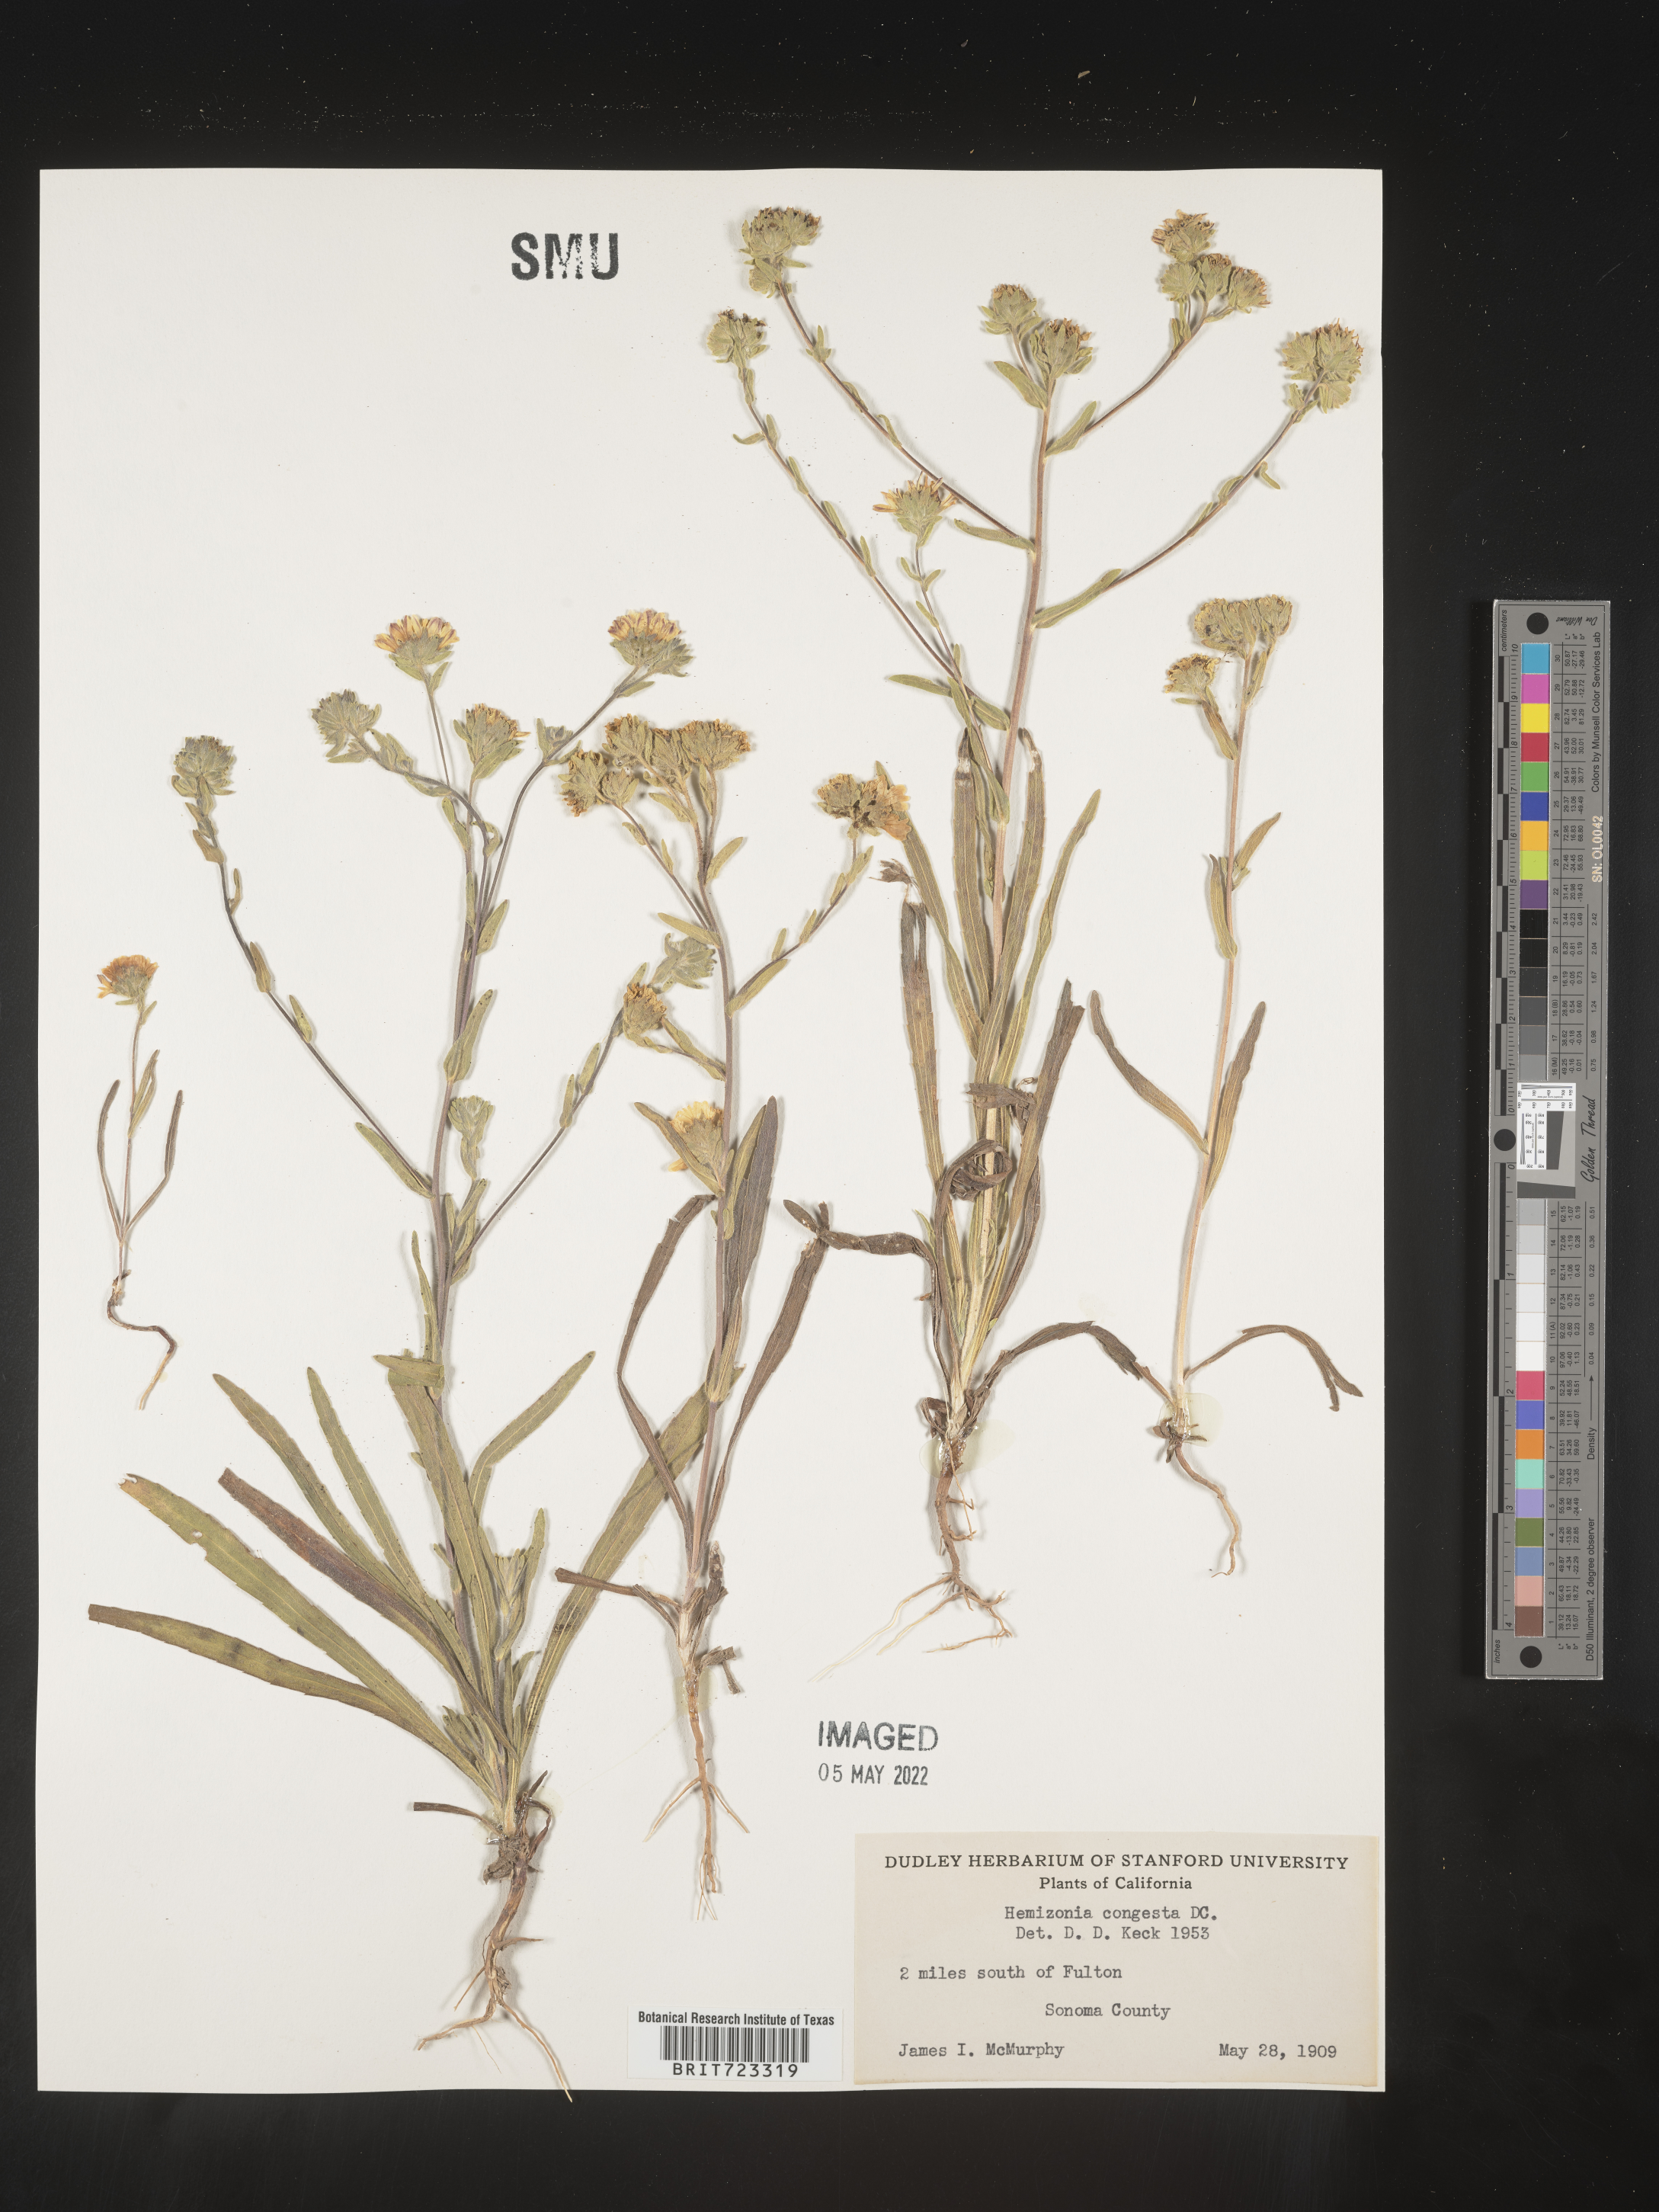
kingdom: Plantae
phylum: Tracheophyta
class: Magnoliopsida
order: Asterales
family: Asteraceae
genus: Hemizonia
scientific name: Hemizonia
